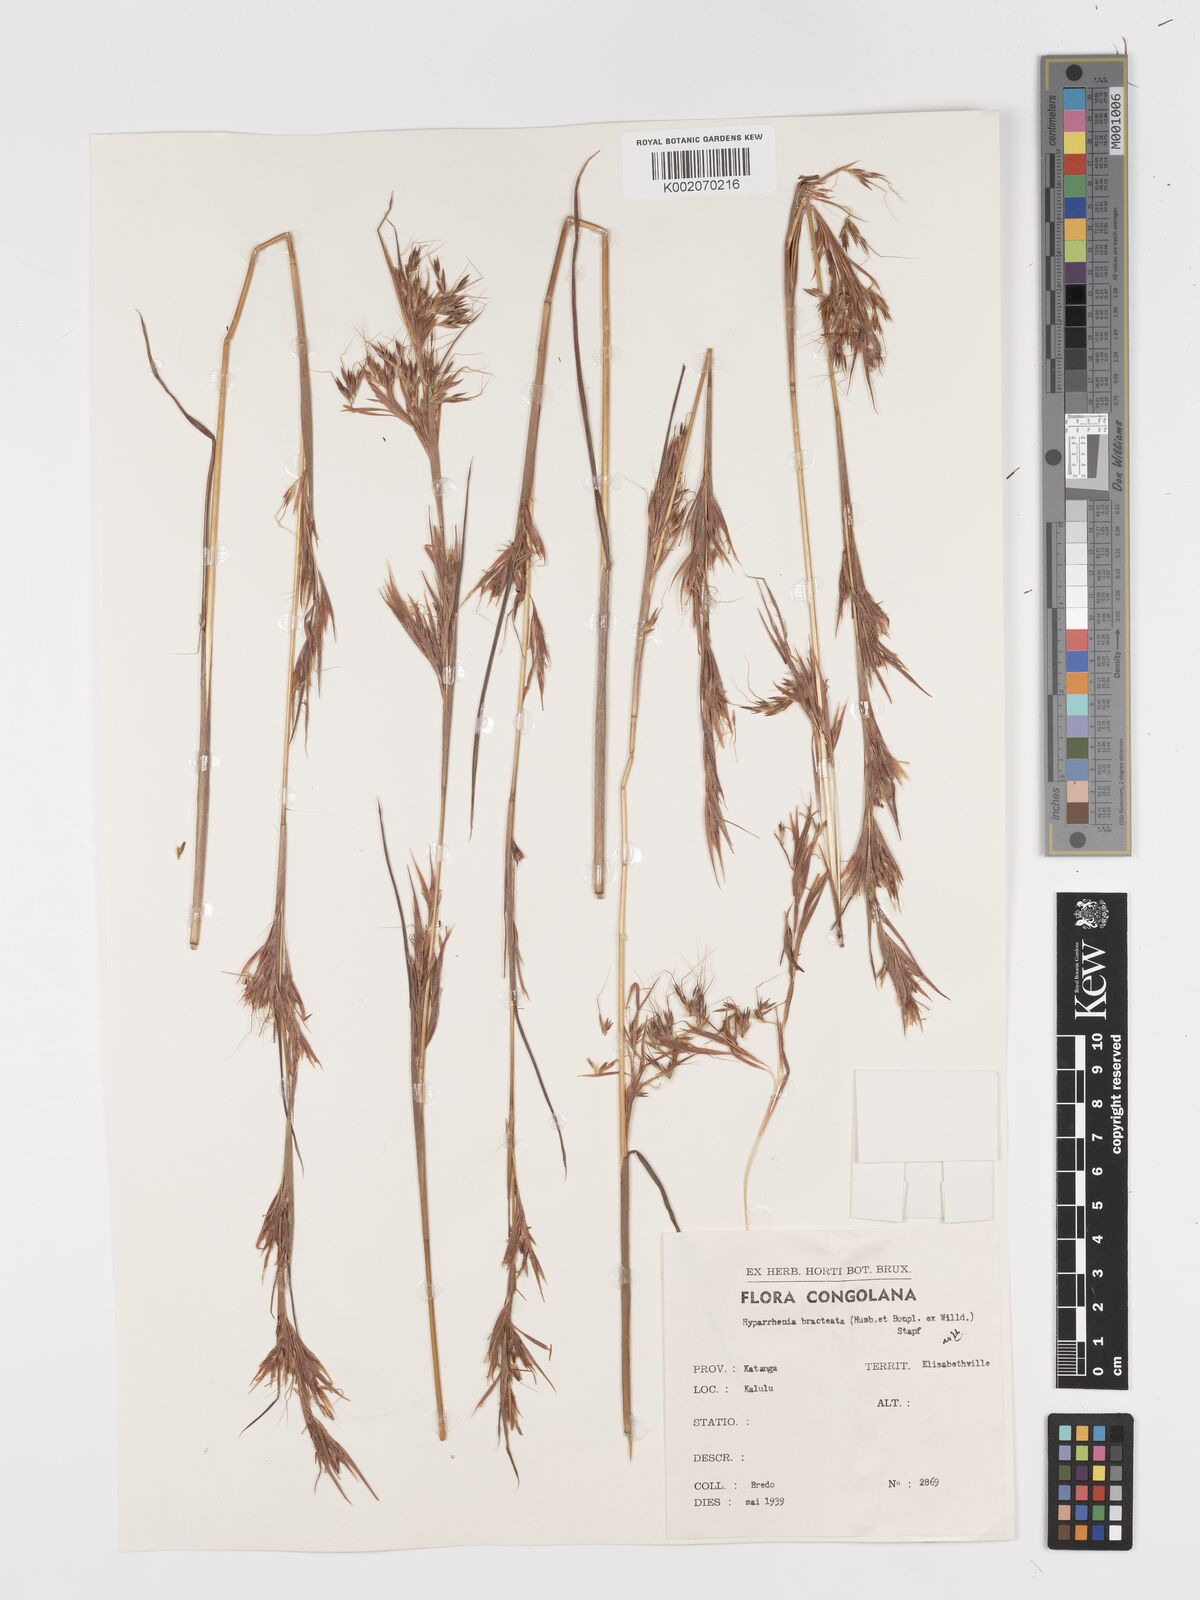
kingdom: Plantae
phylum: Tracheophyta
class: Liliopsida
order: Poales
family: Poaceae
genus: Hyparrhenia
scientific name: Hyparrhenia bracteata
